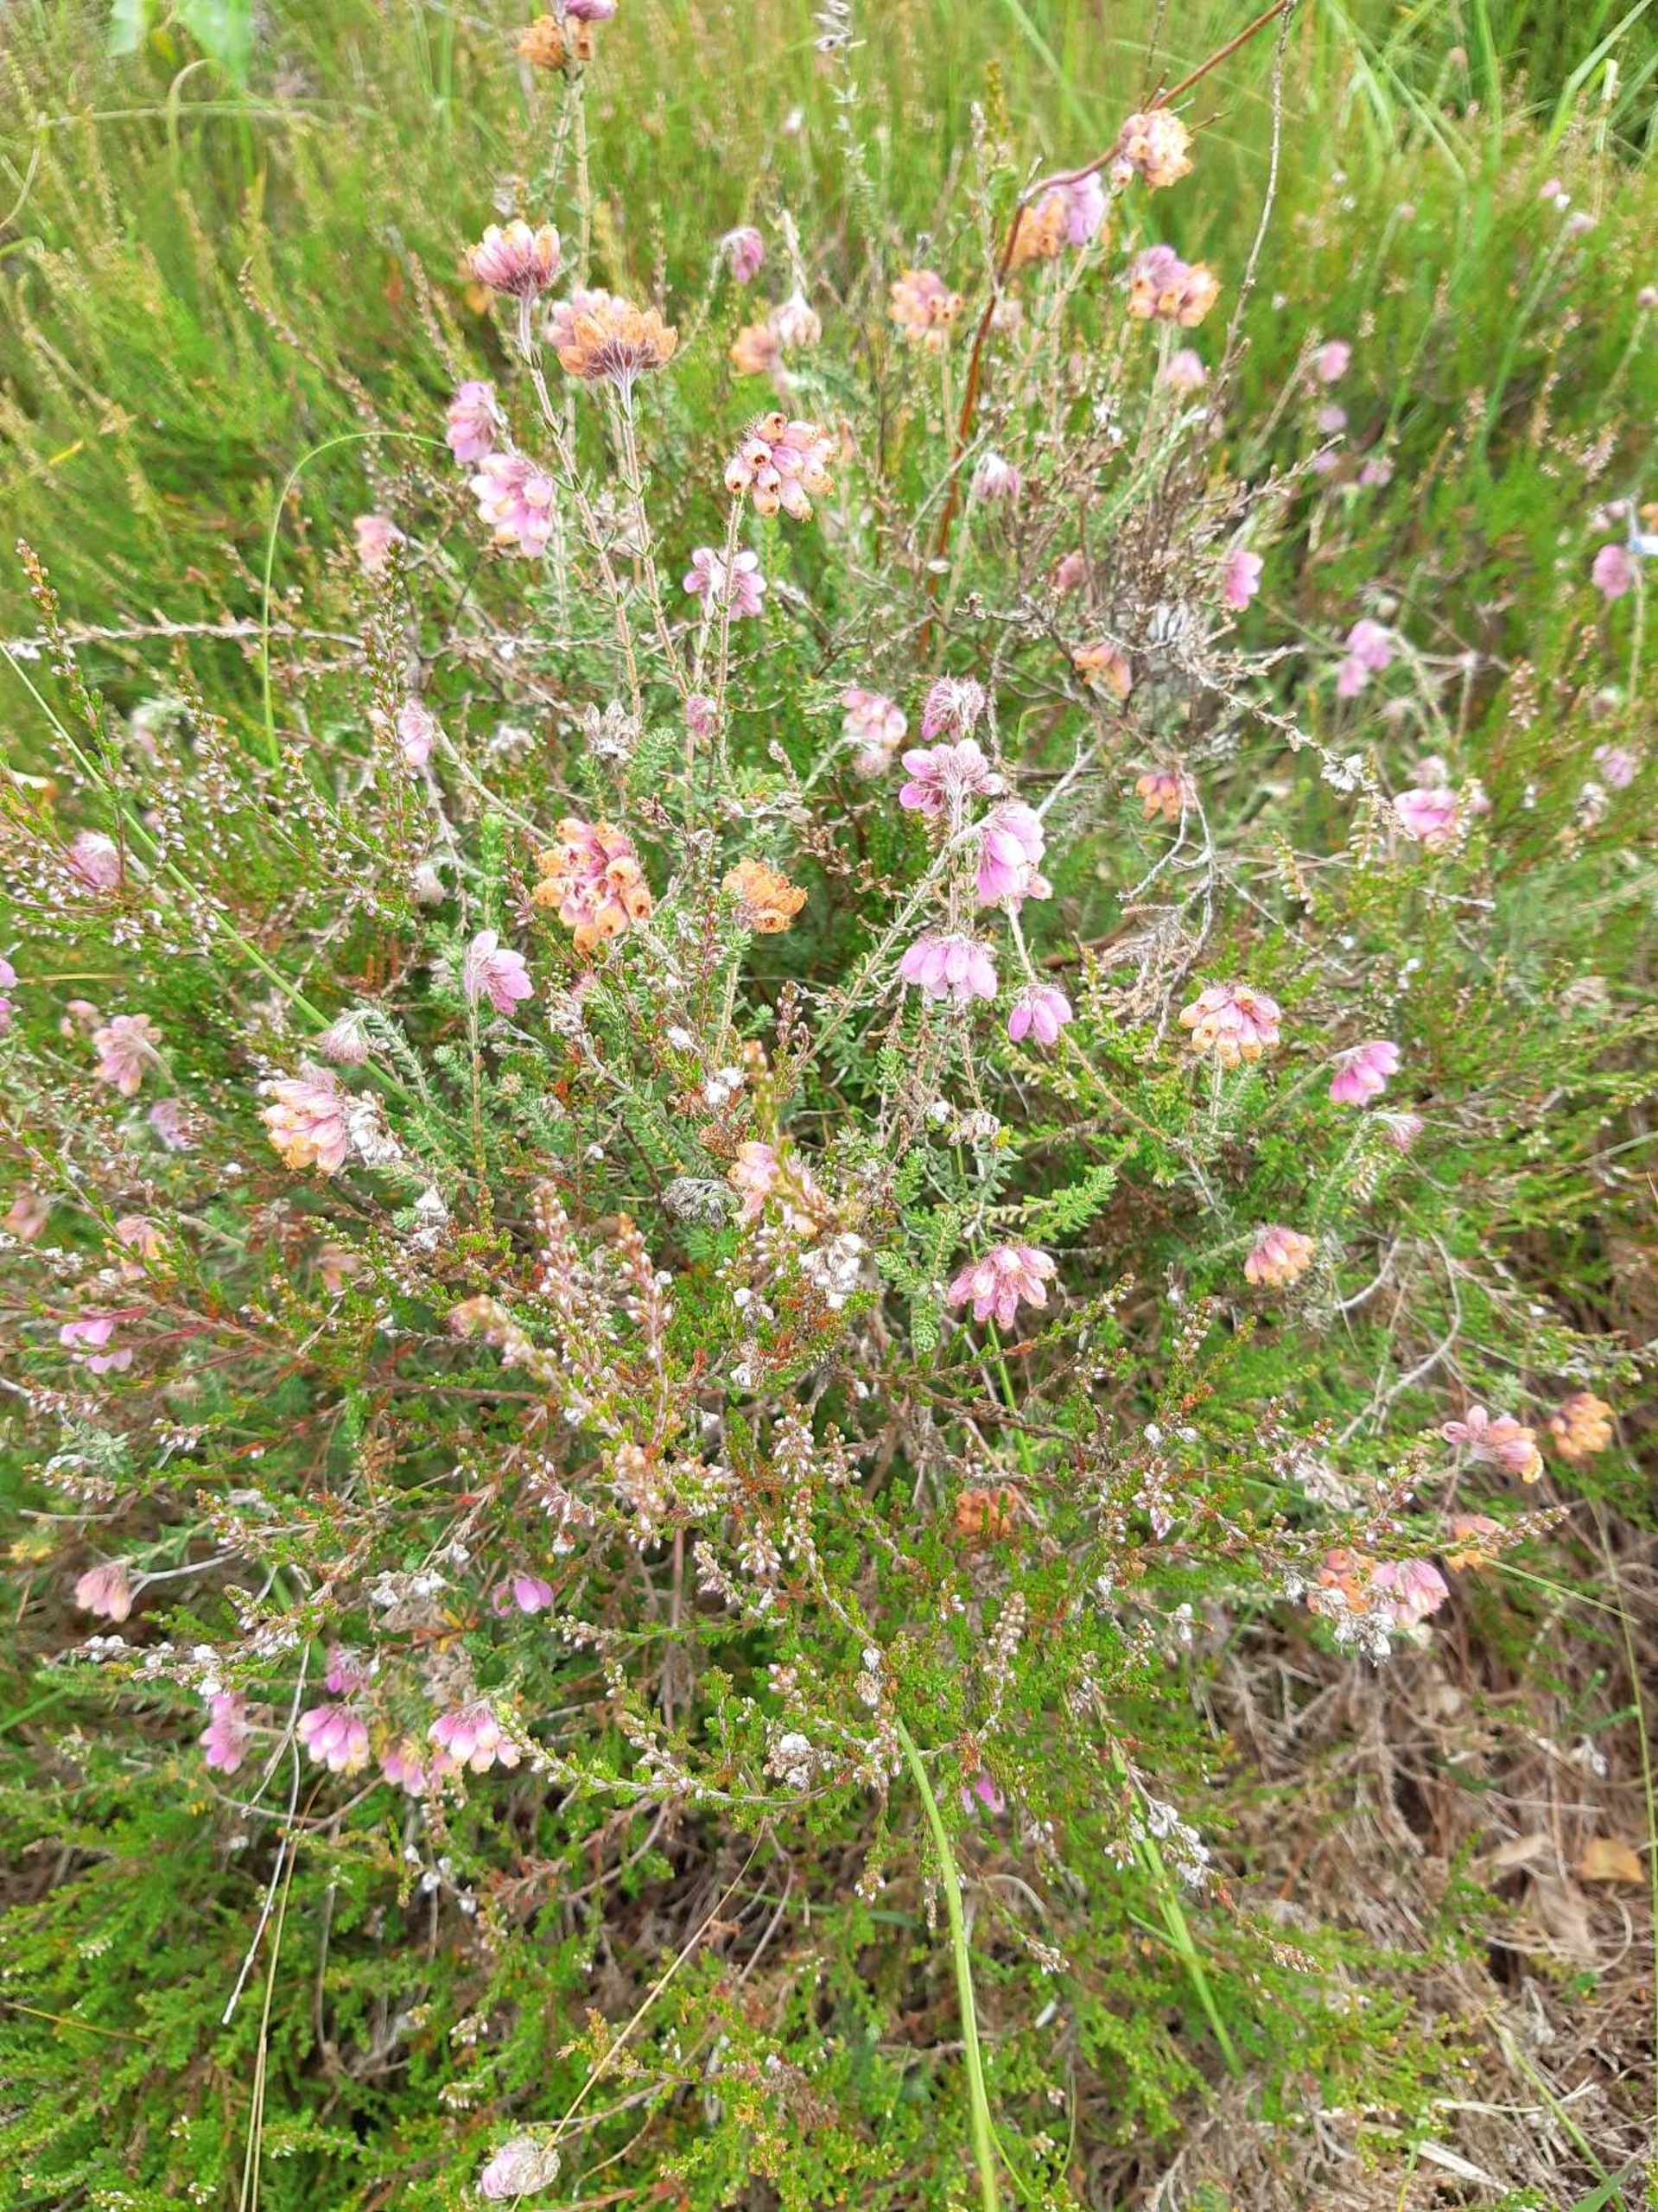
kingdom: Plantae
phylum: Tracheophyta
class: Magnoliopsida
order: Ericales
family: Ericaceae
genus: Erica
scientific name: Erica tetralix
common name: Klokkelyng
